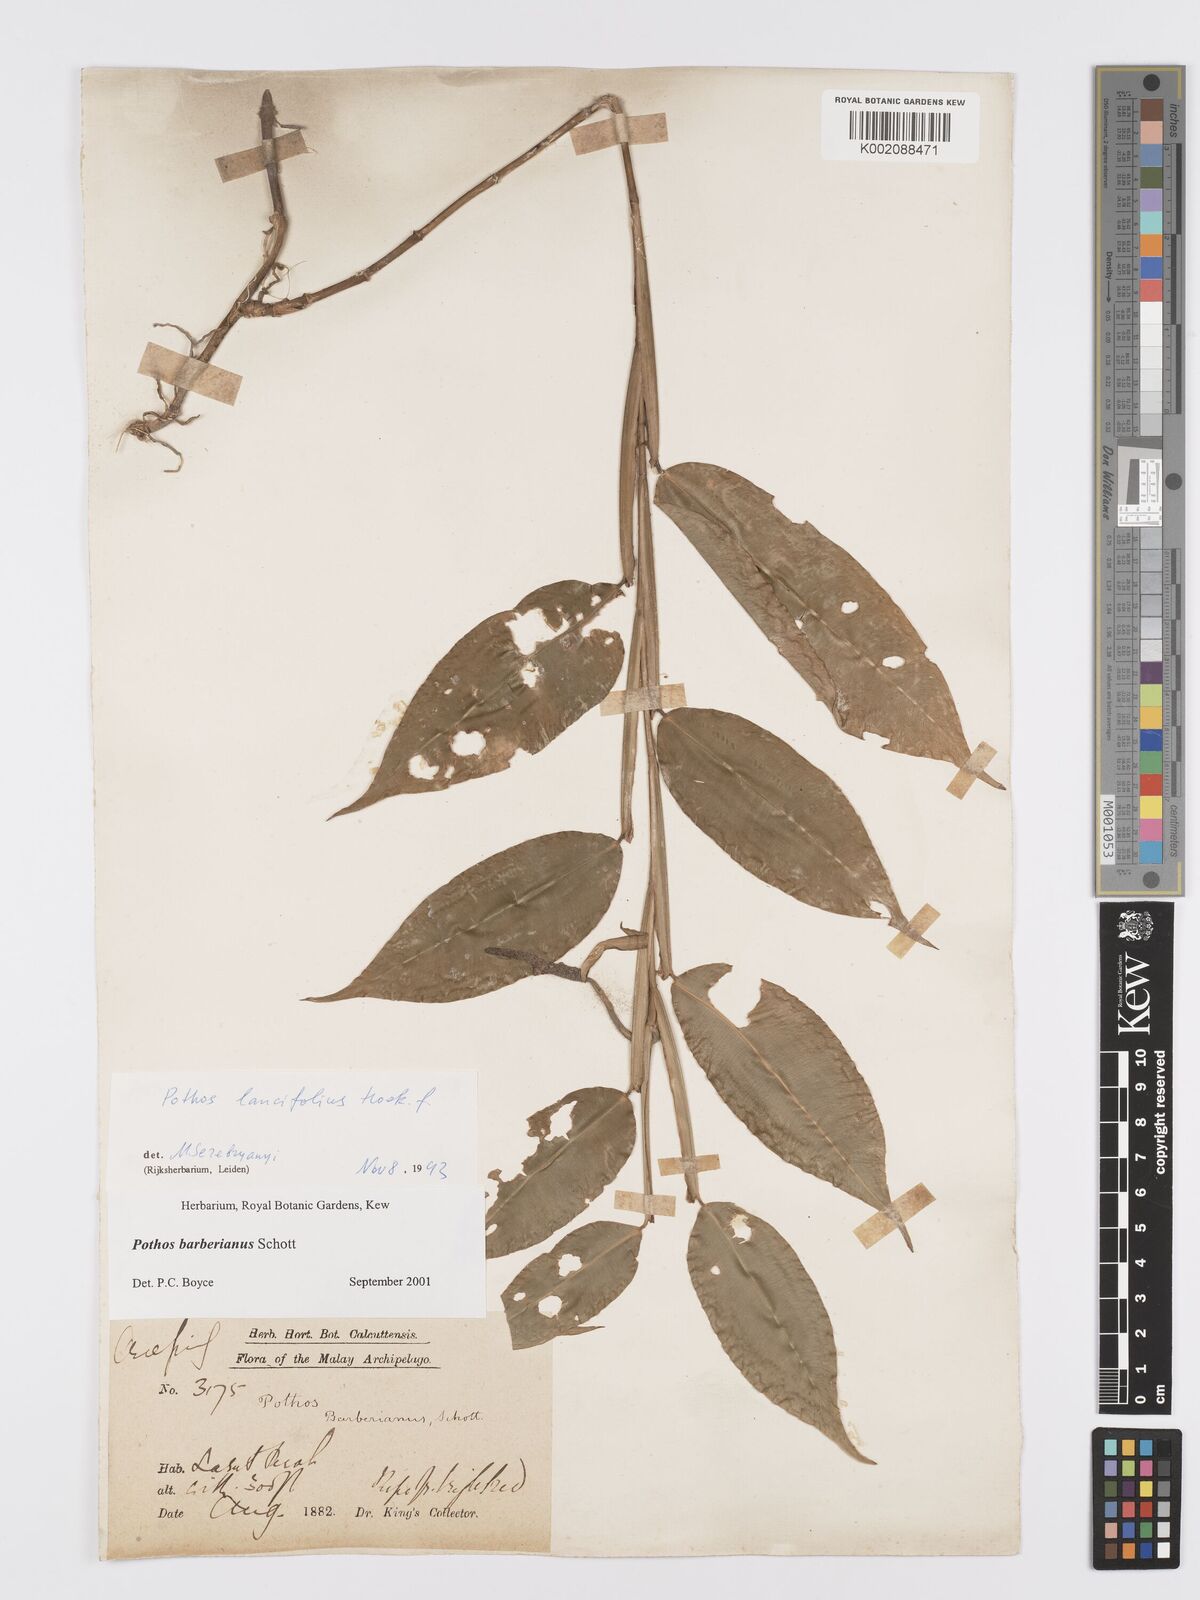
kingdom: Plantae
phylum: Tracheophyta
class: Liliopsida
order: Alismatales
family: Araceae
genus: Pothos
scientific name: Pothos barberianus
